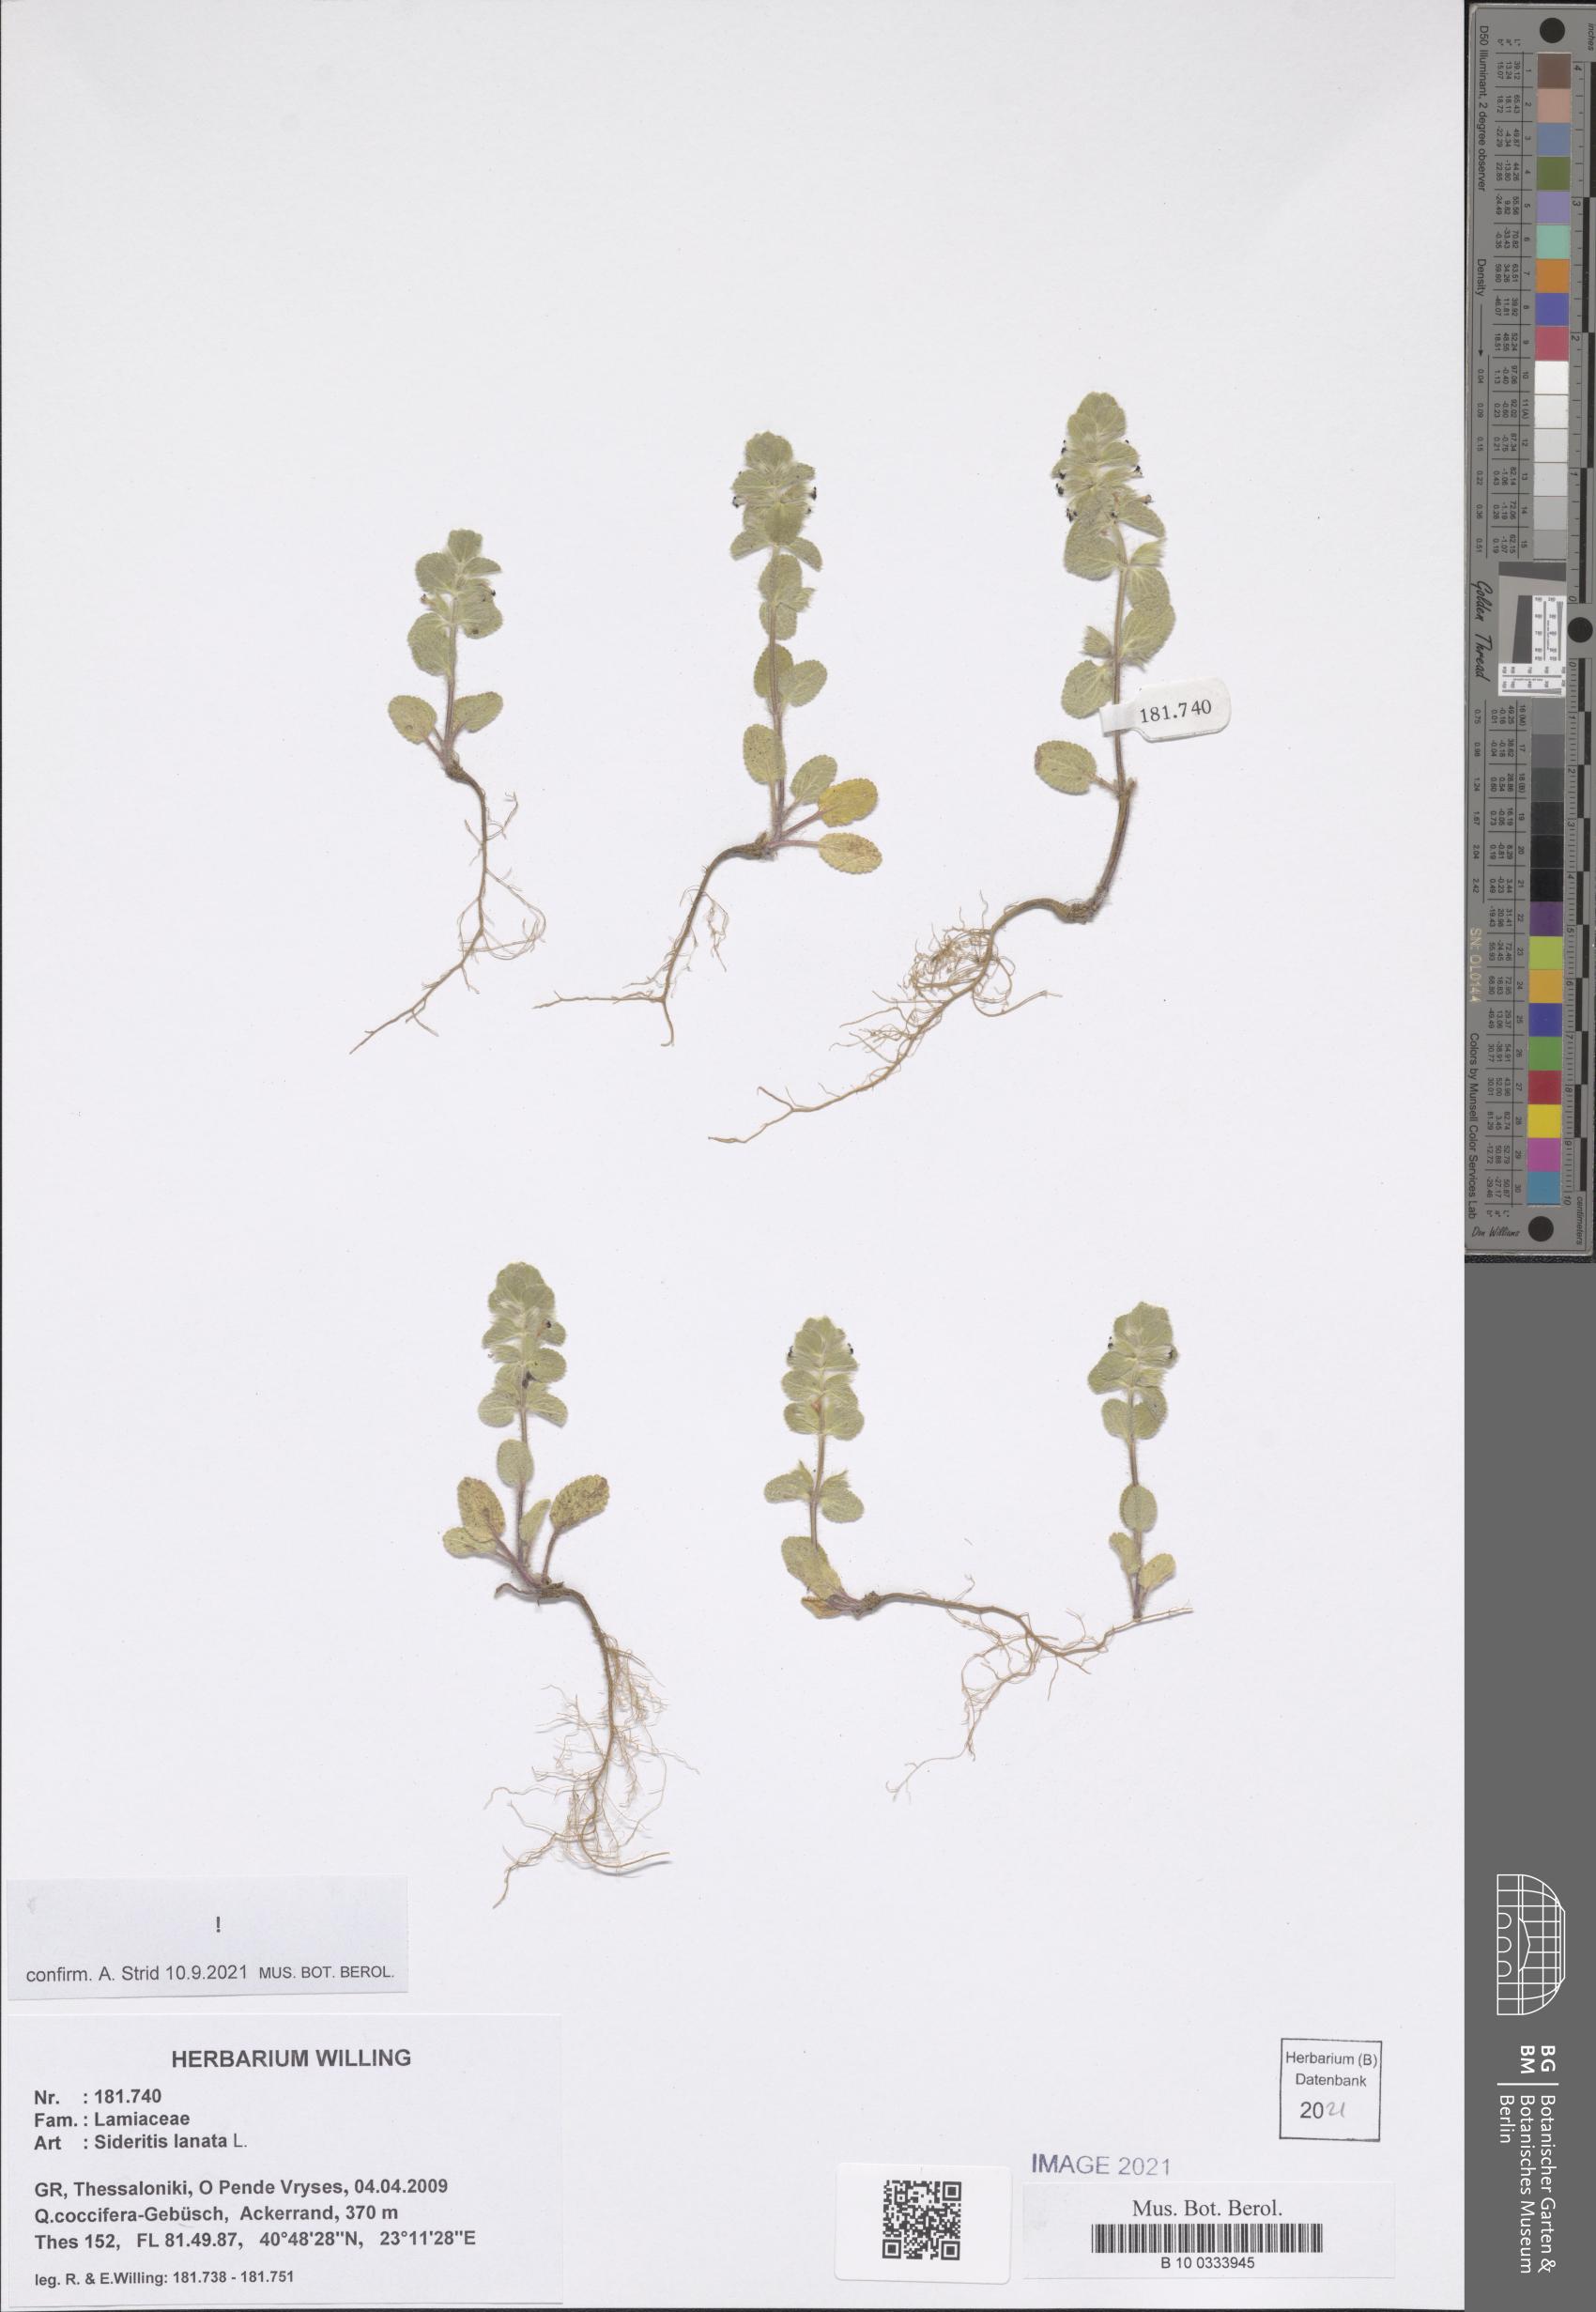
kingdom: Plantae
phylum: Tracheophyta
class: Magnoliopsida
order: Lamiales
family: Lamiaceae
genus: Sideritis
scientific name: Sideritis lanata
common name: Hairy ironwort
